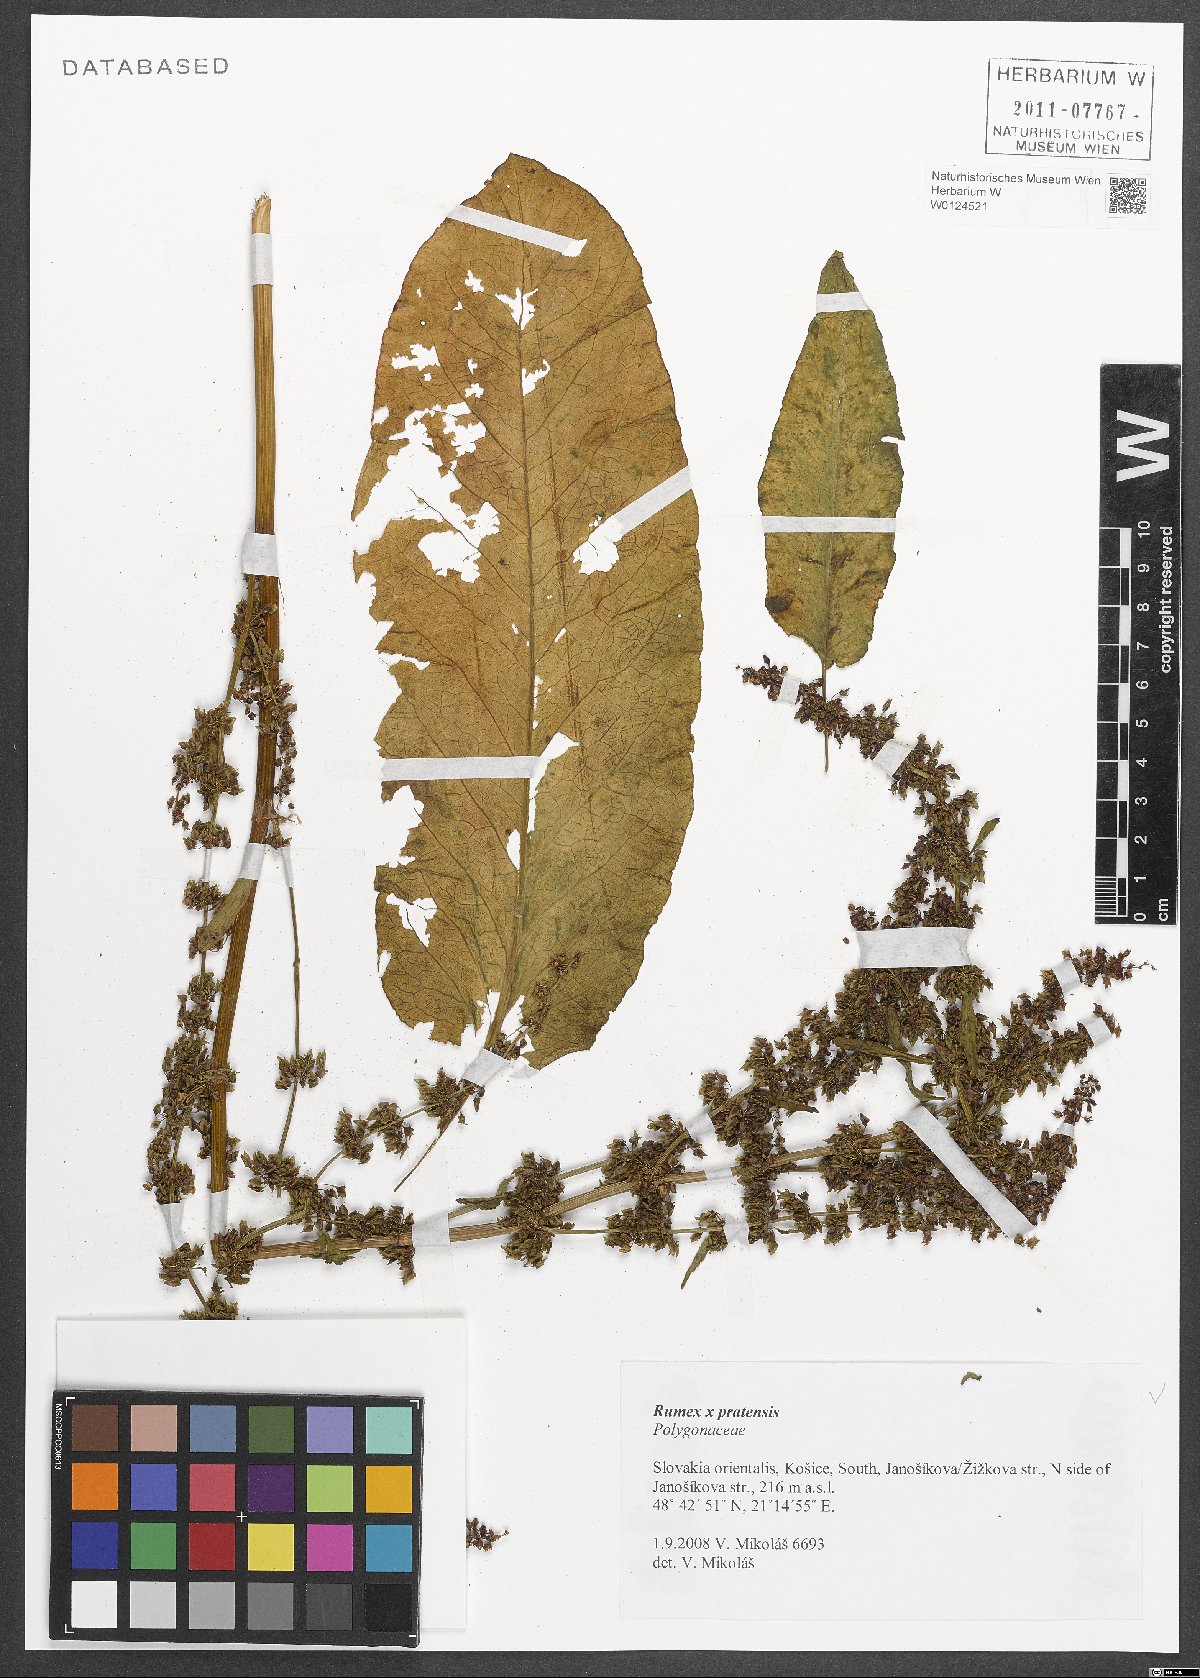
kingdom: Plantae
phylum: Tracheophyta
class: Magnoliopsida
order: Caryophyllales
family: Polygonaceae
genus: Rumex
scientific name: Rumex
